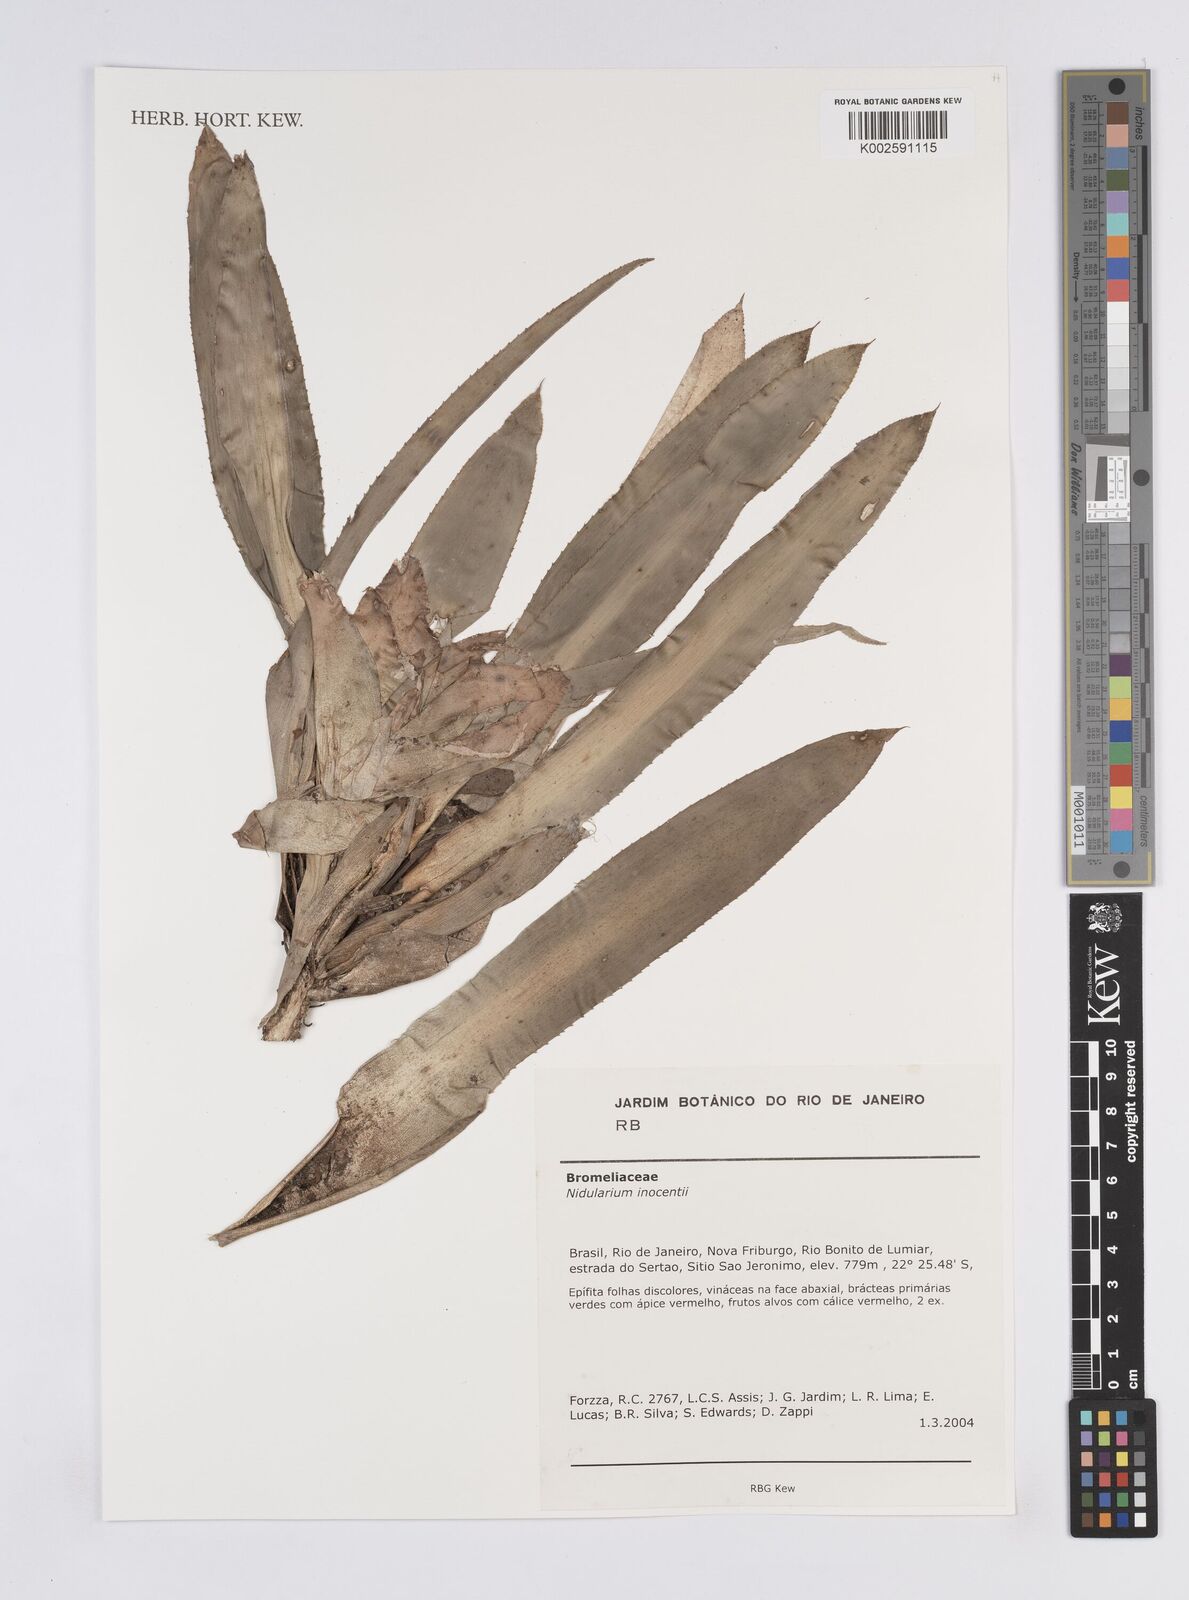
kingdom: Plantae
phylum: Tracheophyta
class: Liliopsida
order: Poales
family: Bromeliaceae
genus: Nidularium
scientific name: Nidularium innocentii
